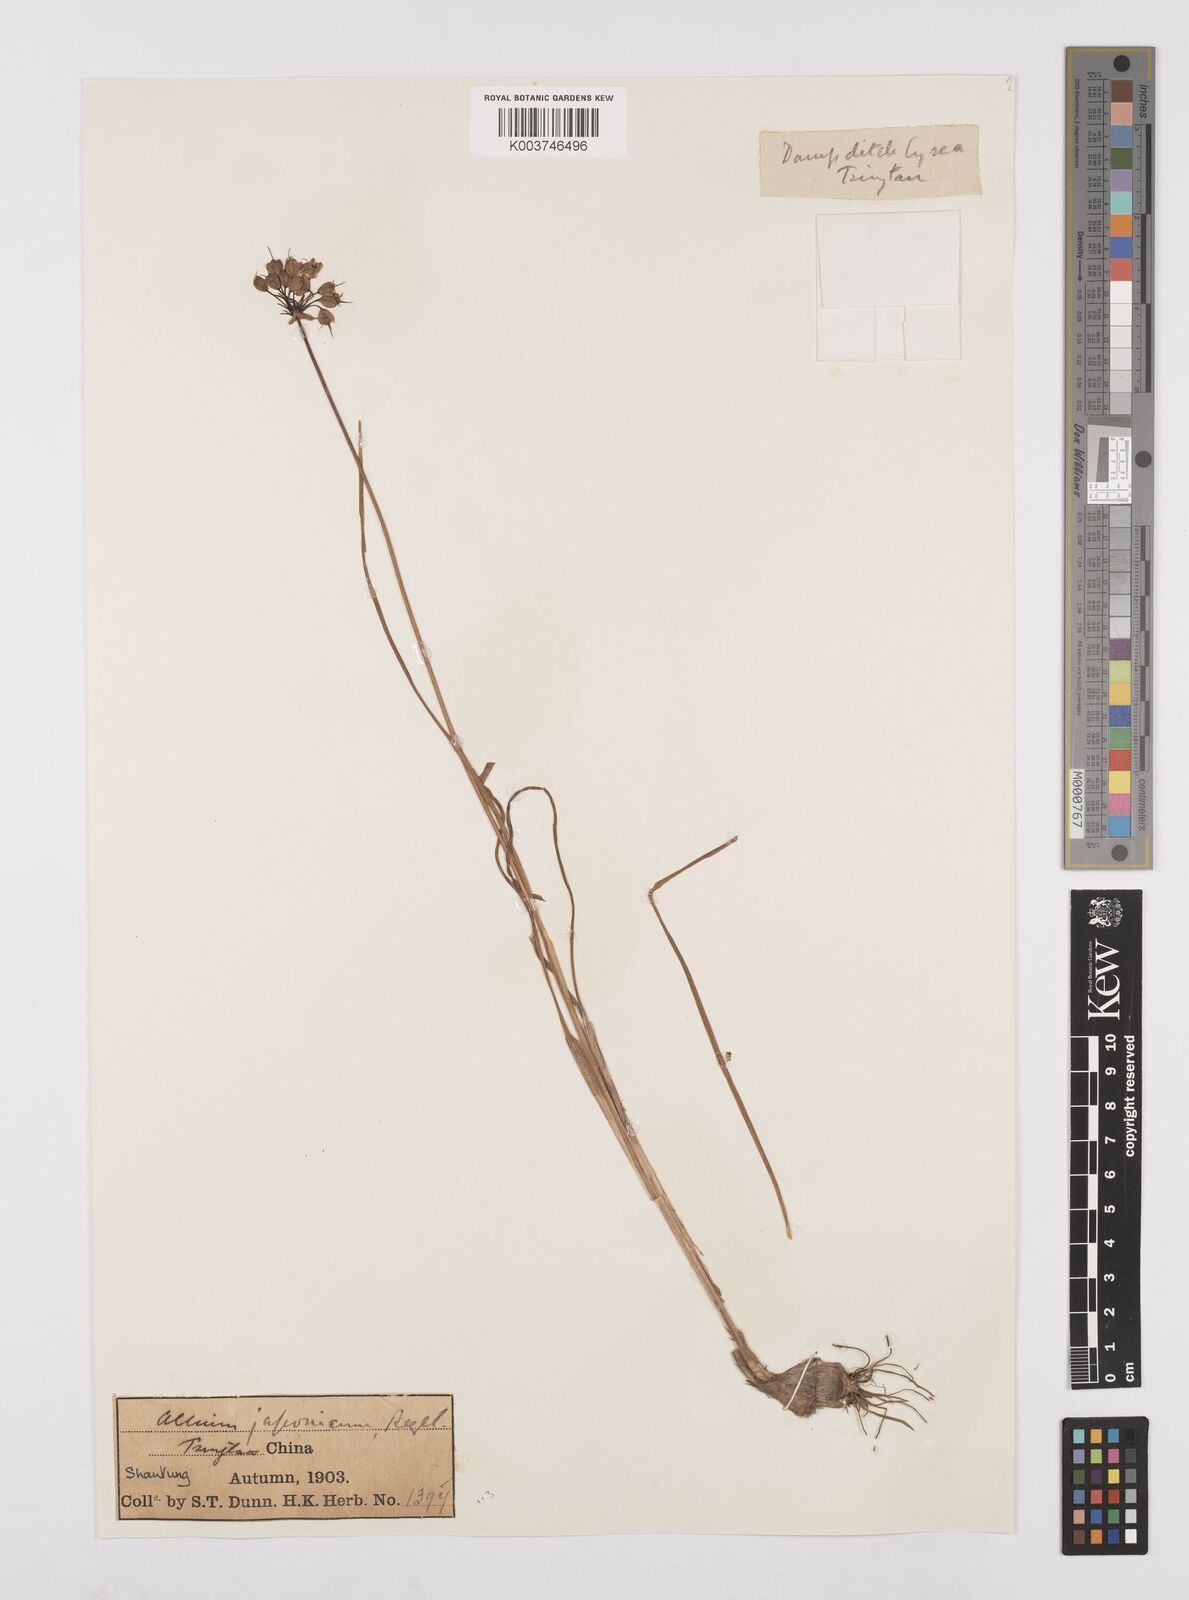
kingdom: Plantae
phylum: Tracheophyta
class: Liliopsida
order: Asparagales
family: Amaryllidaceae
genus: Allium
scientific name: Allium sacculiferum
